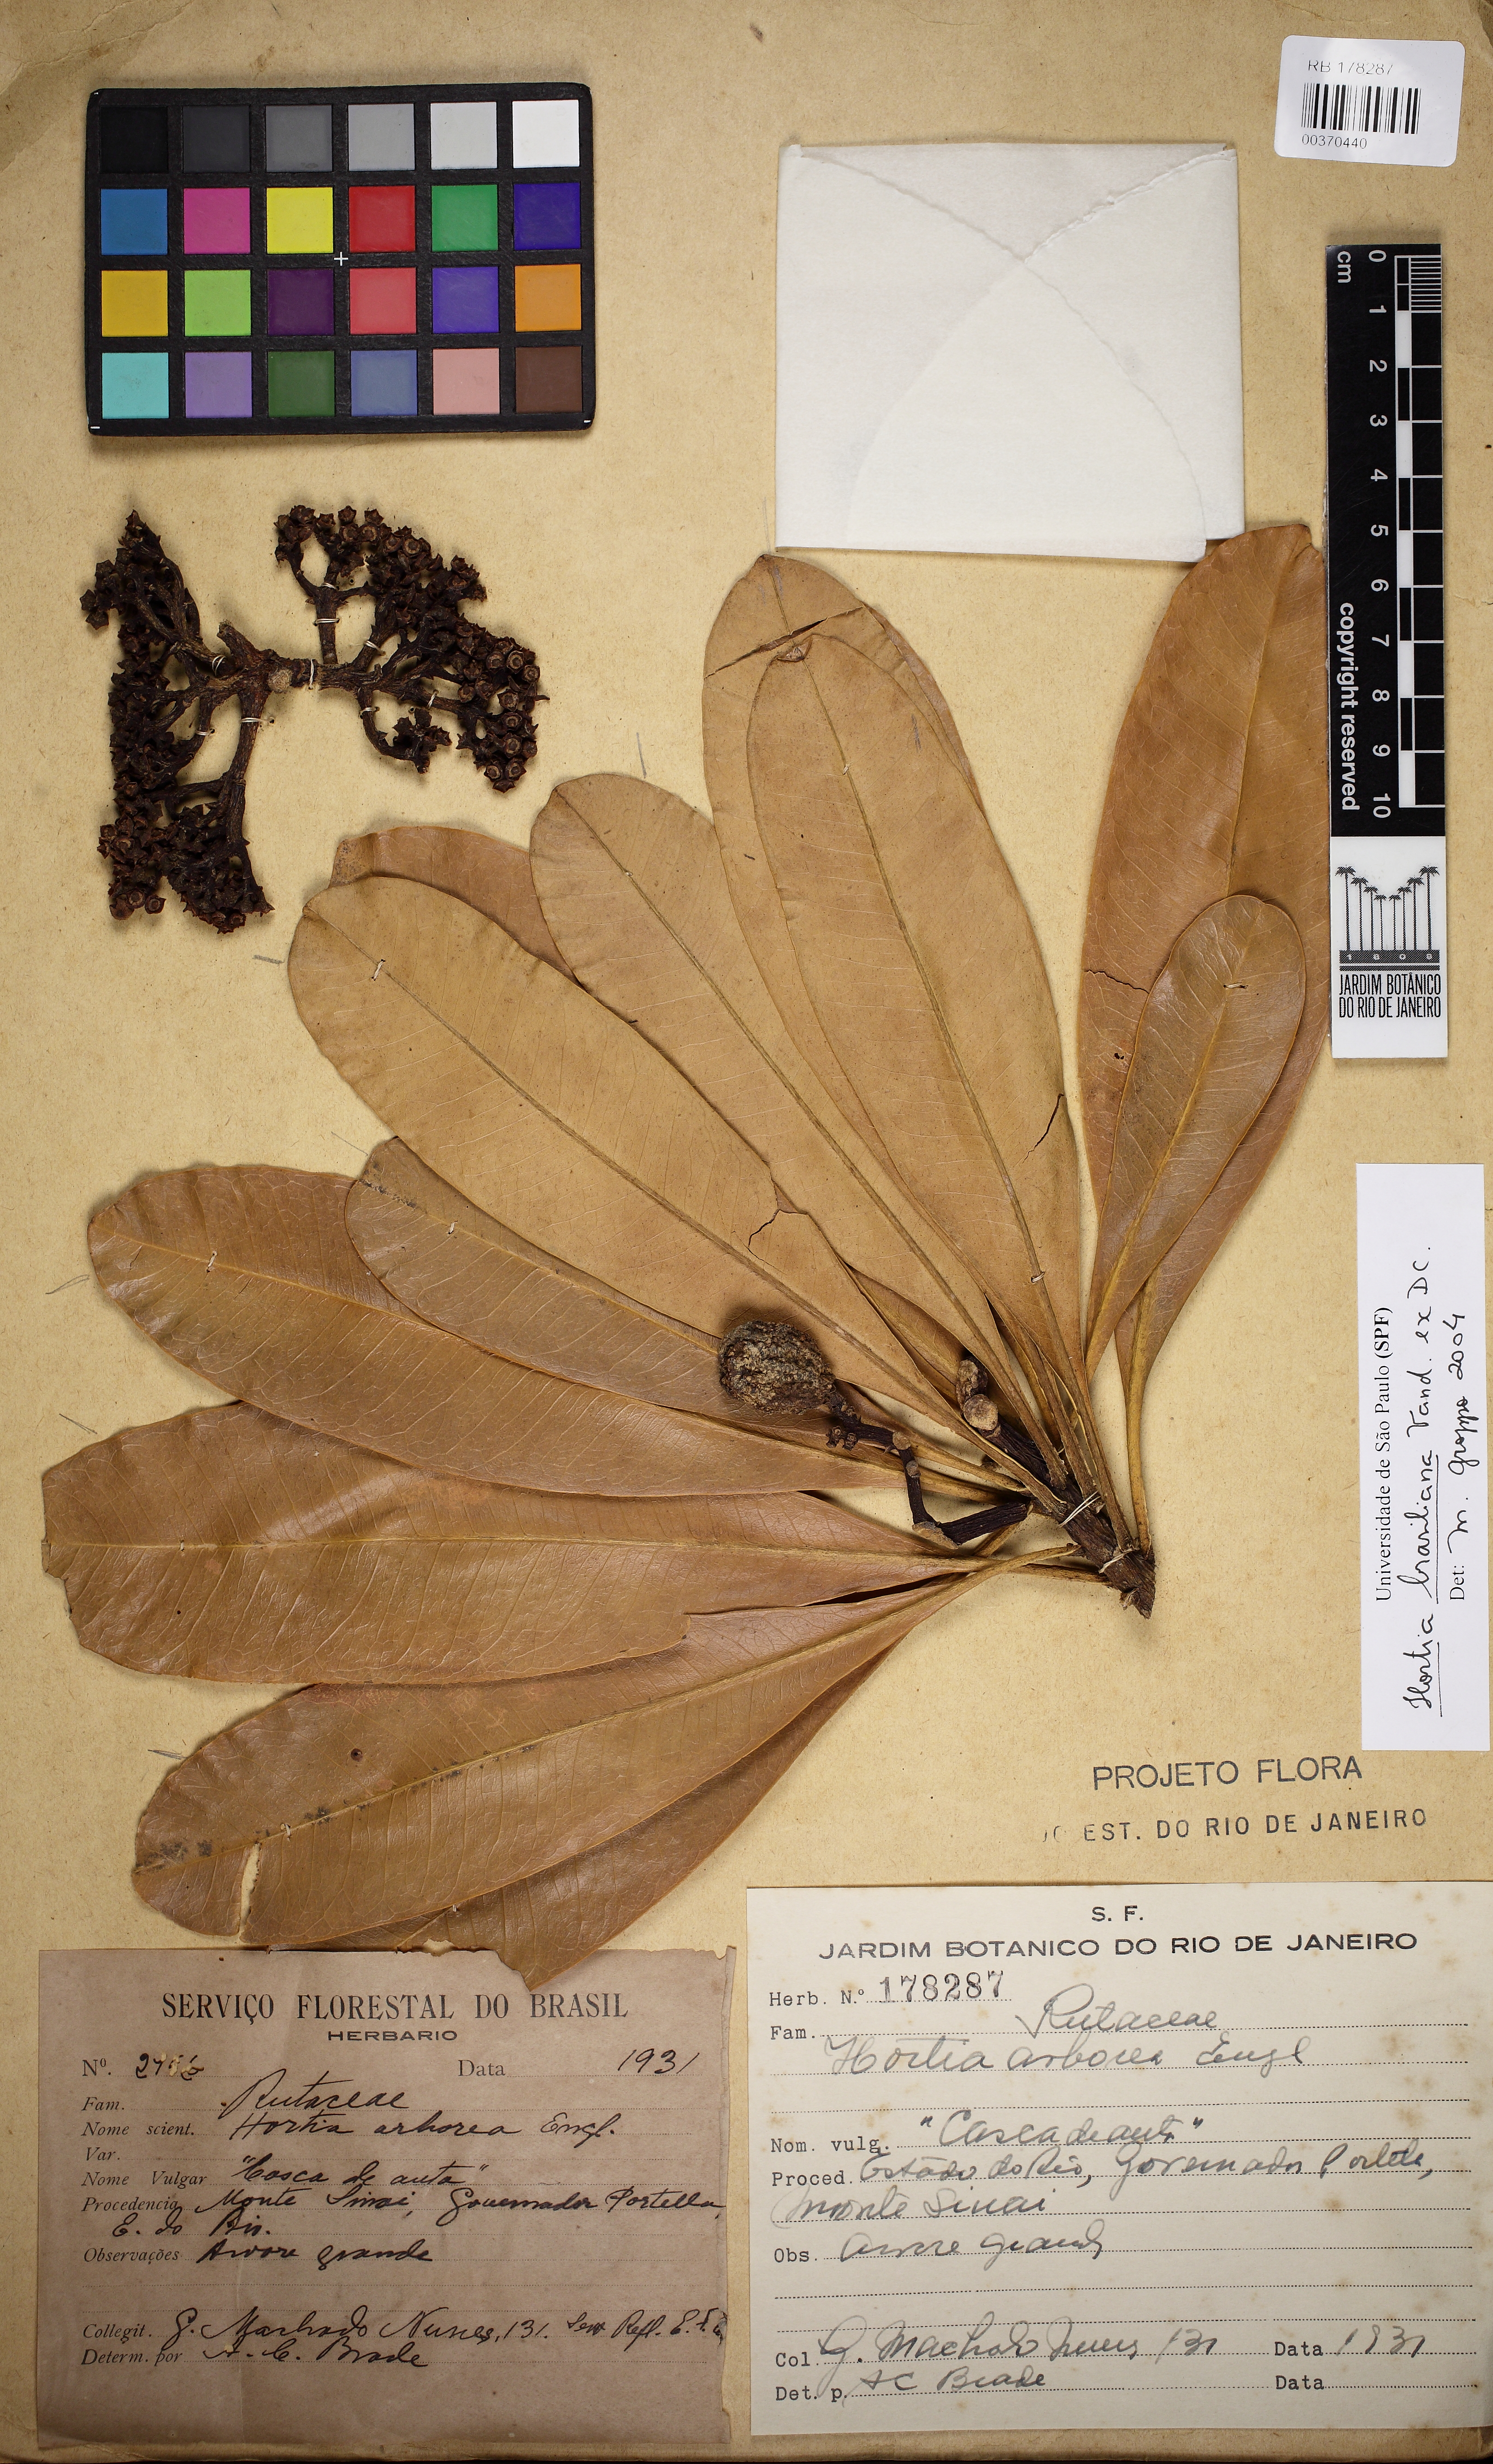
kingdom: Plantae
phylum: Tracheophyta
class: Magnoliopsida
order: Sapindales
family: Rutaceae
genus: Hortia
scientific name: Hortia brasiliana
